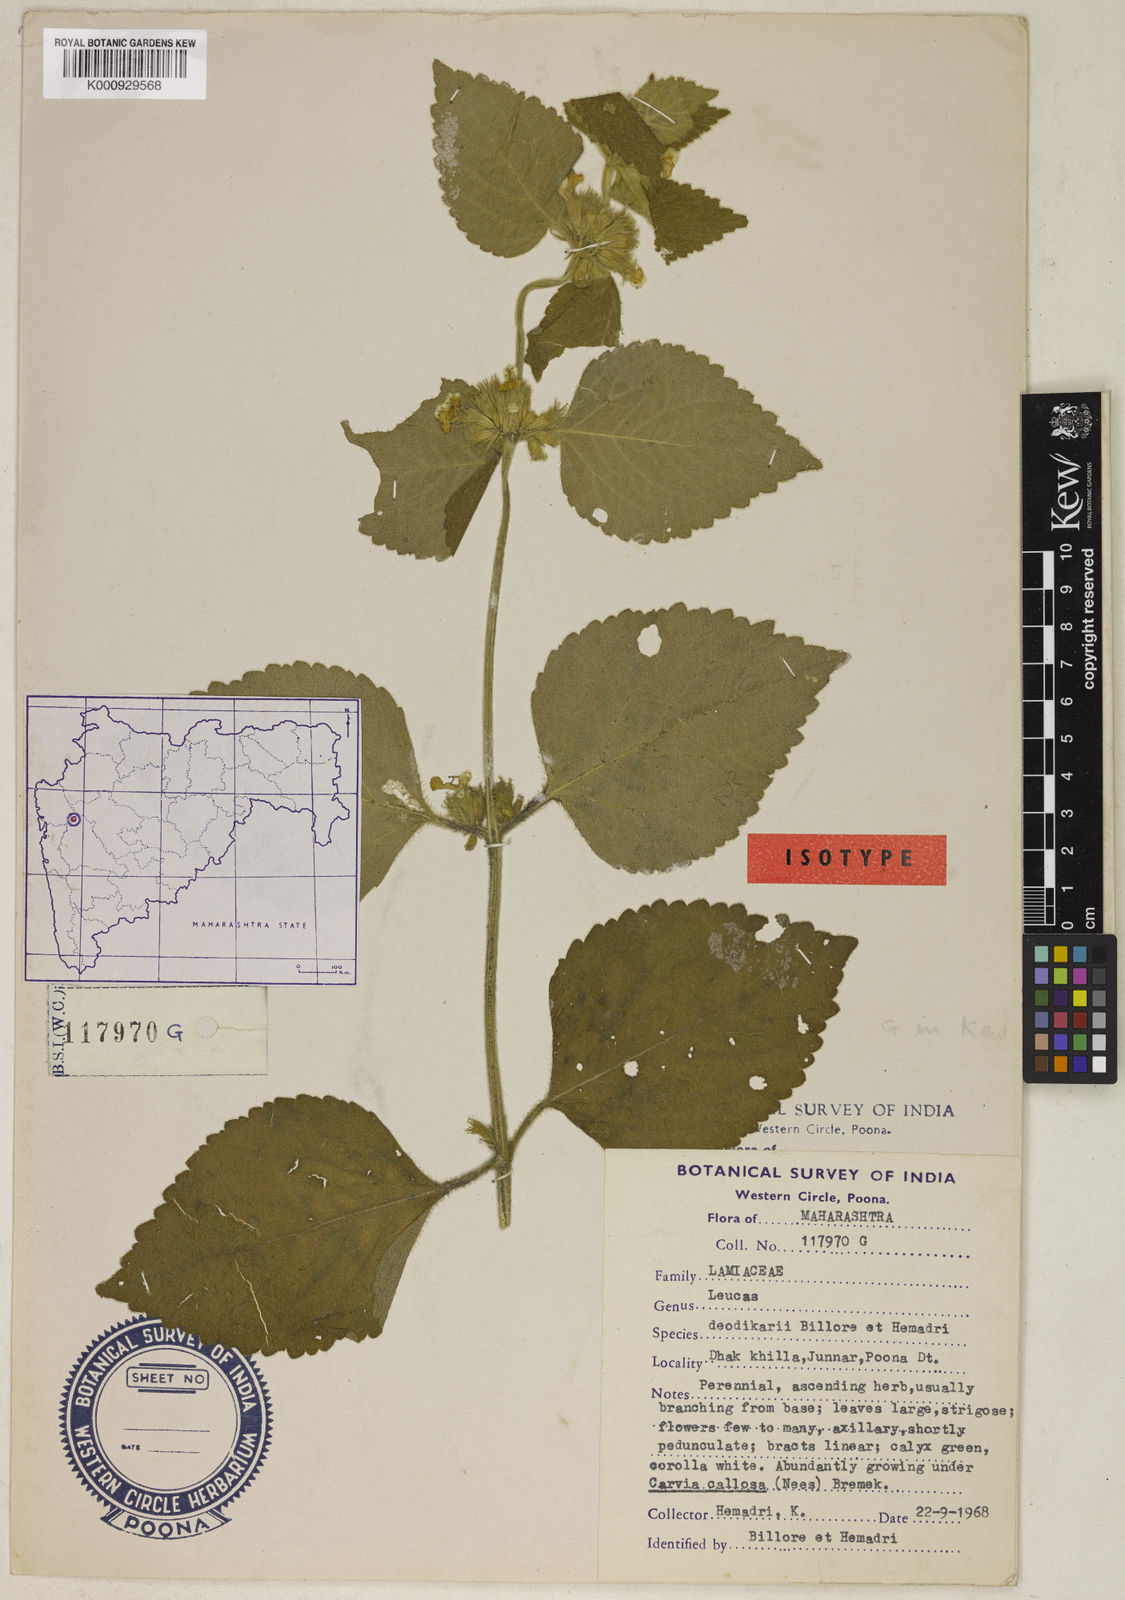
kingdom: Plantae
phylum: Tracheophyta
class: Magnoliopsida
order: Lamiales
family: Lamiaceae
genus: Leucas
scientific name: Leucas deodikarii
